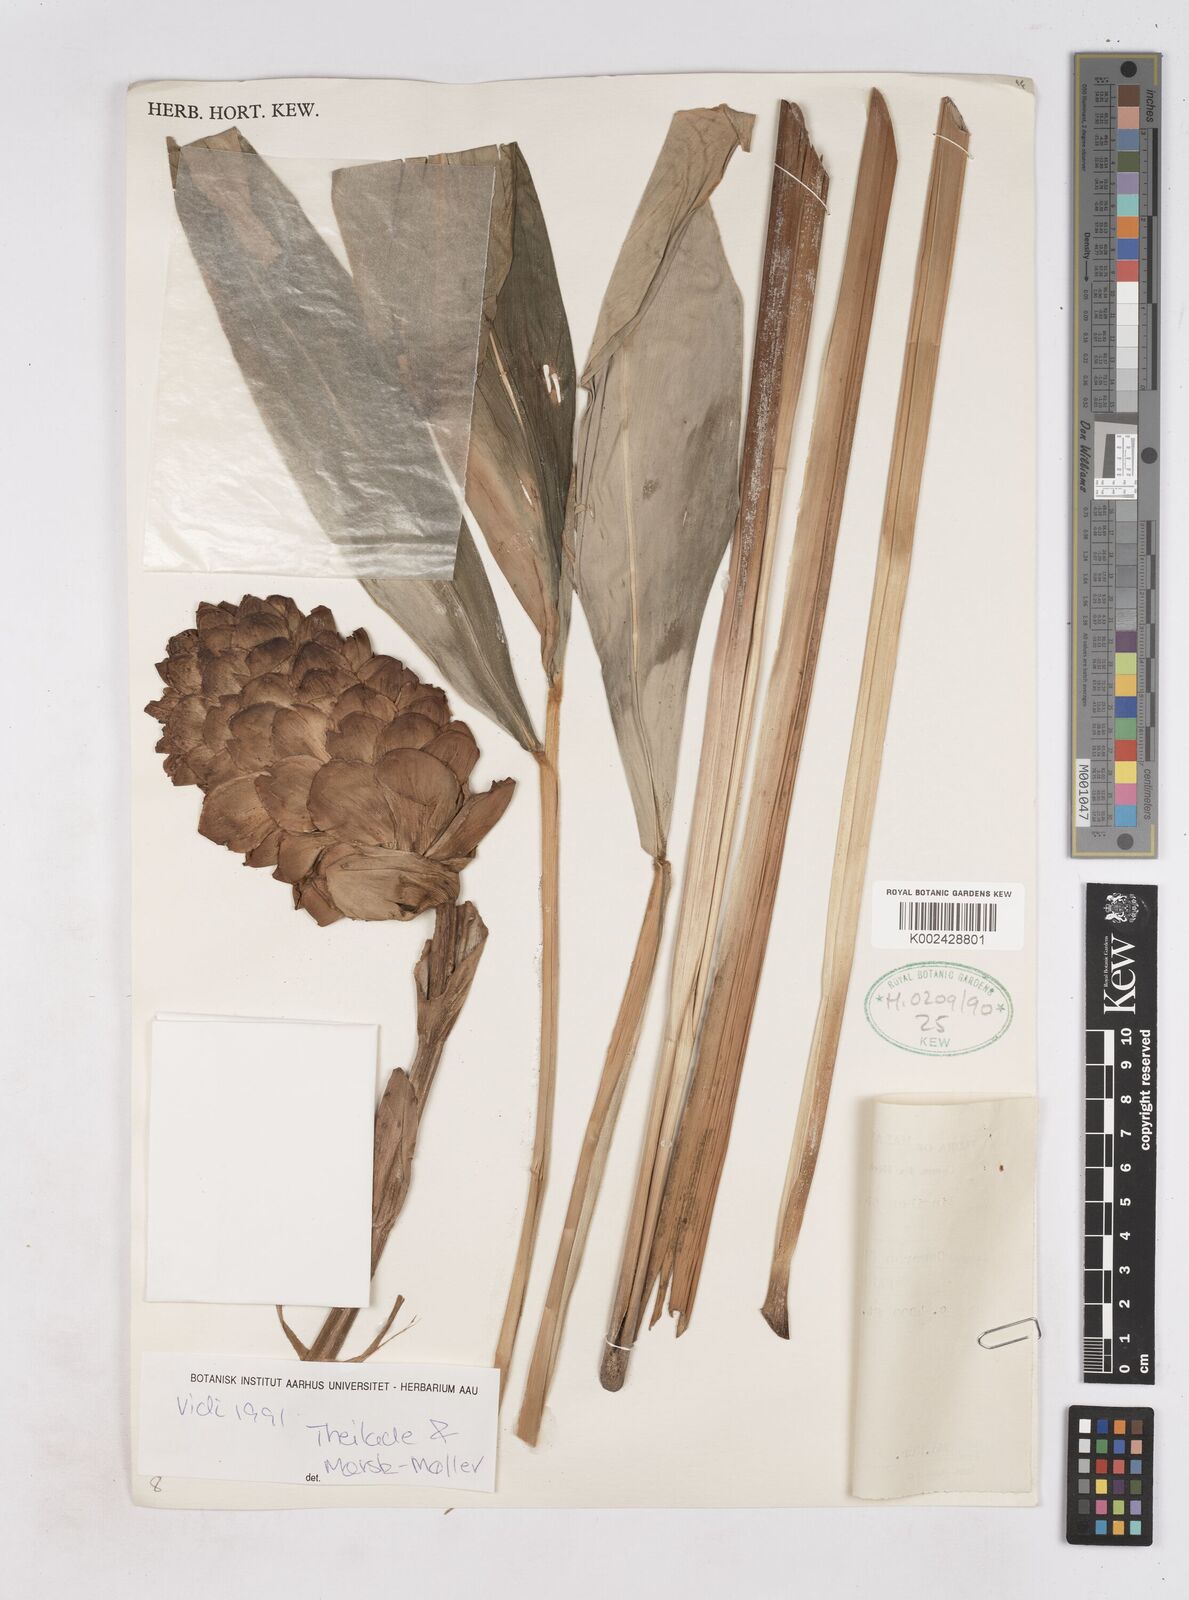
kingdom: Plantae
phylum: Tracheophyta
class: Liliopsida
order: Zingiberales
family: Zingiberaceae
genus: Zingiber
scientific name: Zingiber multibracteatum
